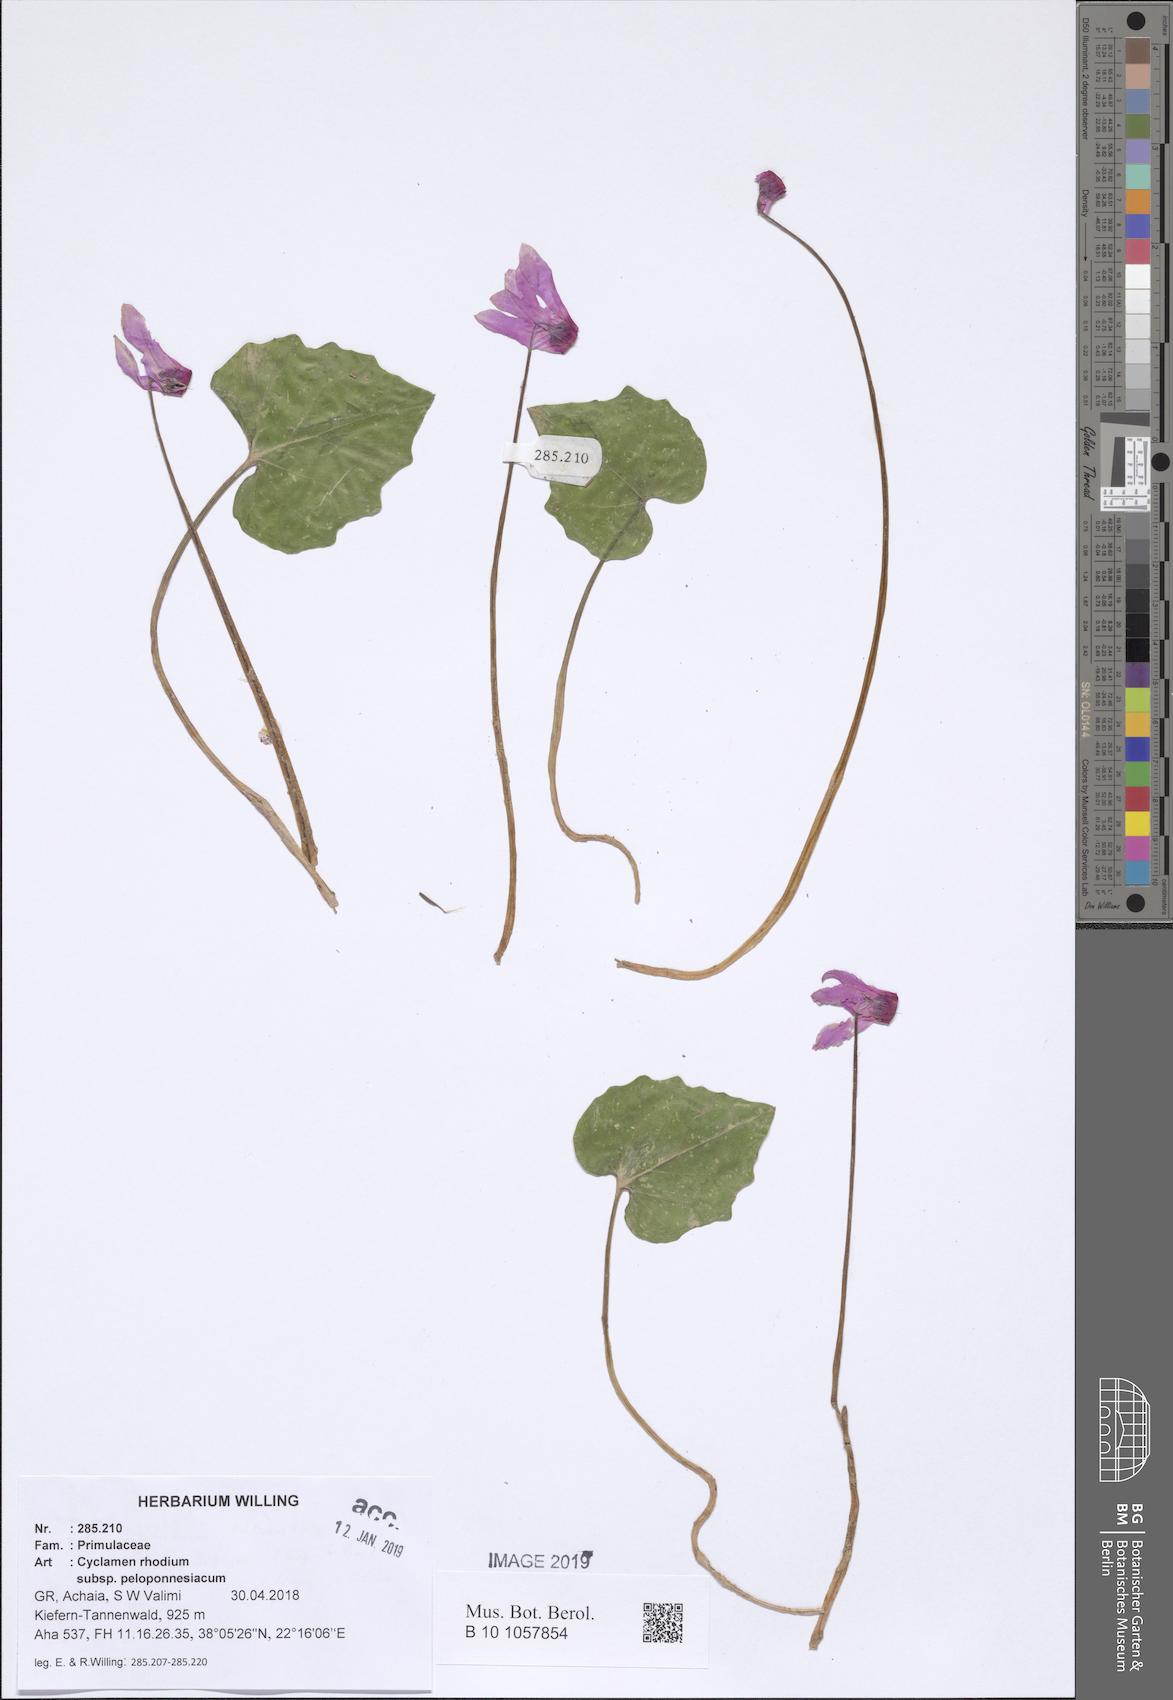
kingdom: Plantae
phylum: Tracheophyta
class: Magnoliopsida
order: Ericales
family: Primulaceae
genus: Cyclamen
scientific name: Cyclamen repandum
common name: Spring sowbread
